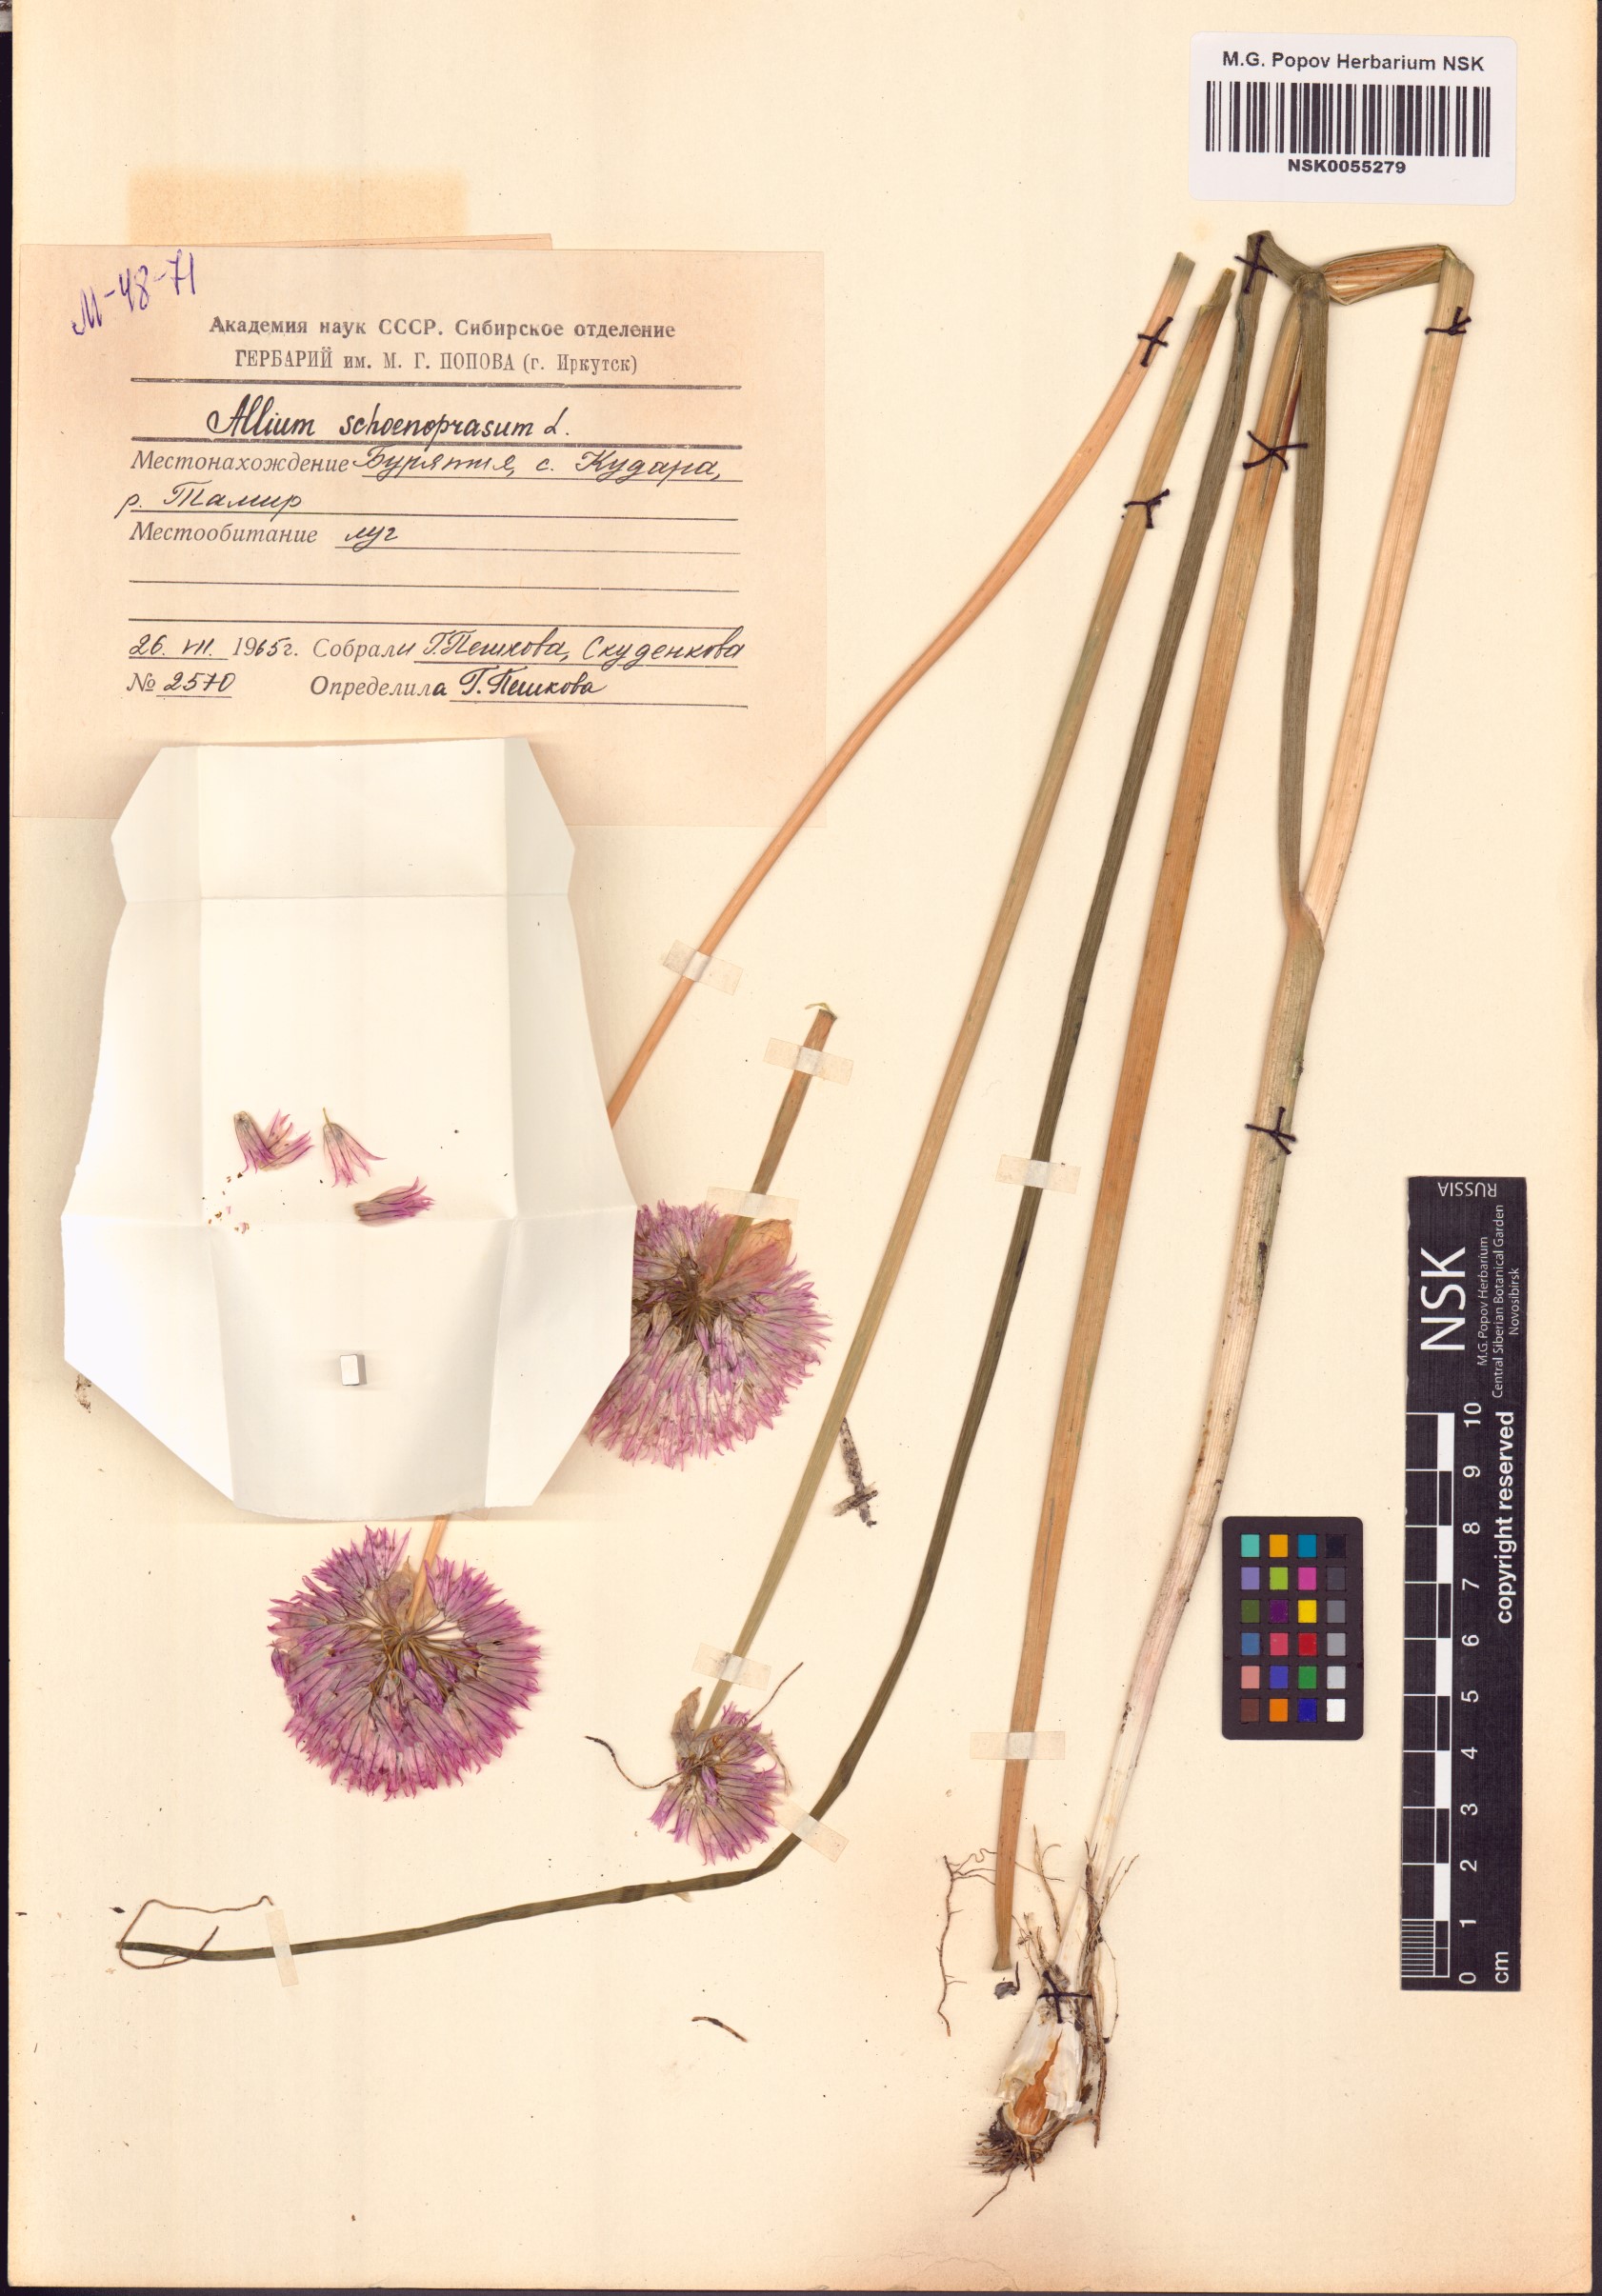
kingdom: Plantae
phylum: Tracheophyta
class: Liliopsida
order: Asparagales
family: Amaryllidaceae
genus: Allium
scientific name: Allium schoenoprasum
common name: Chives
